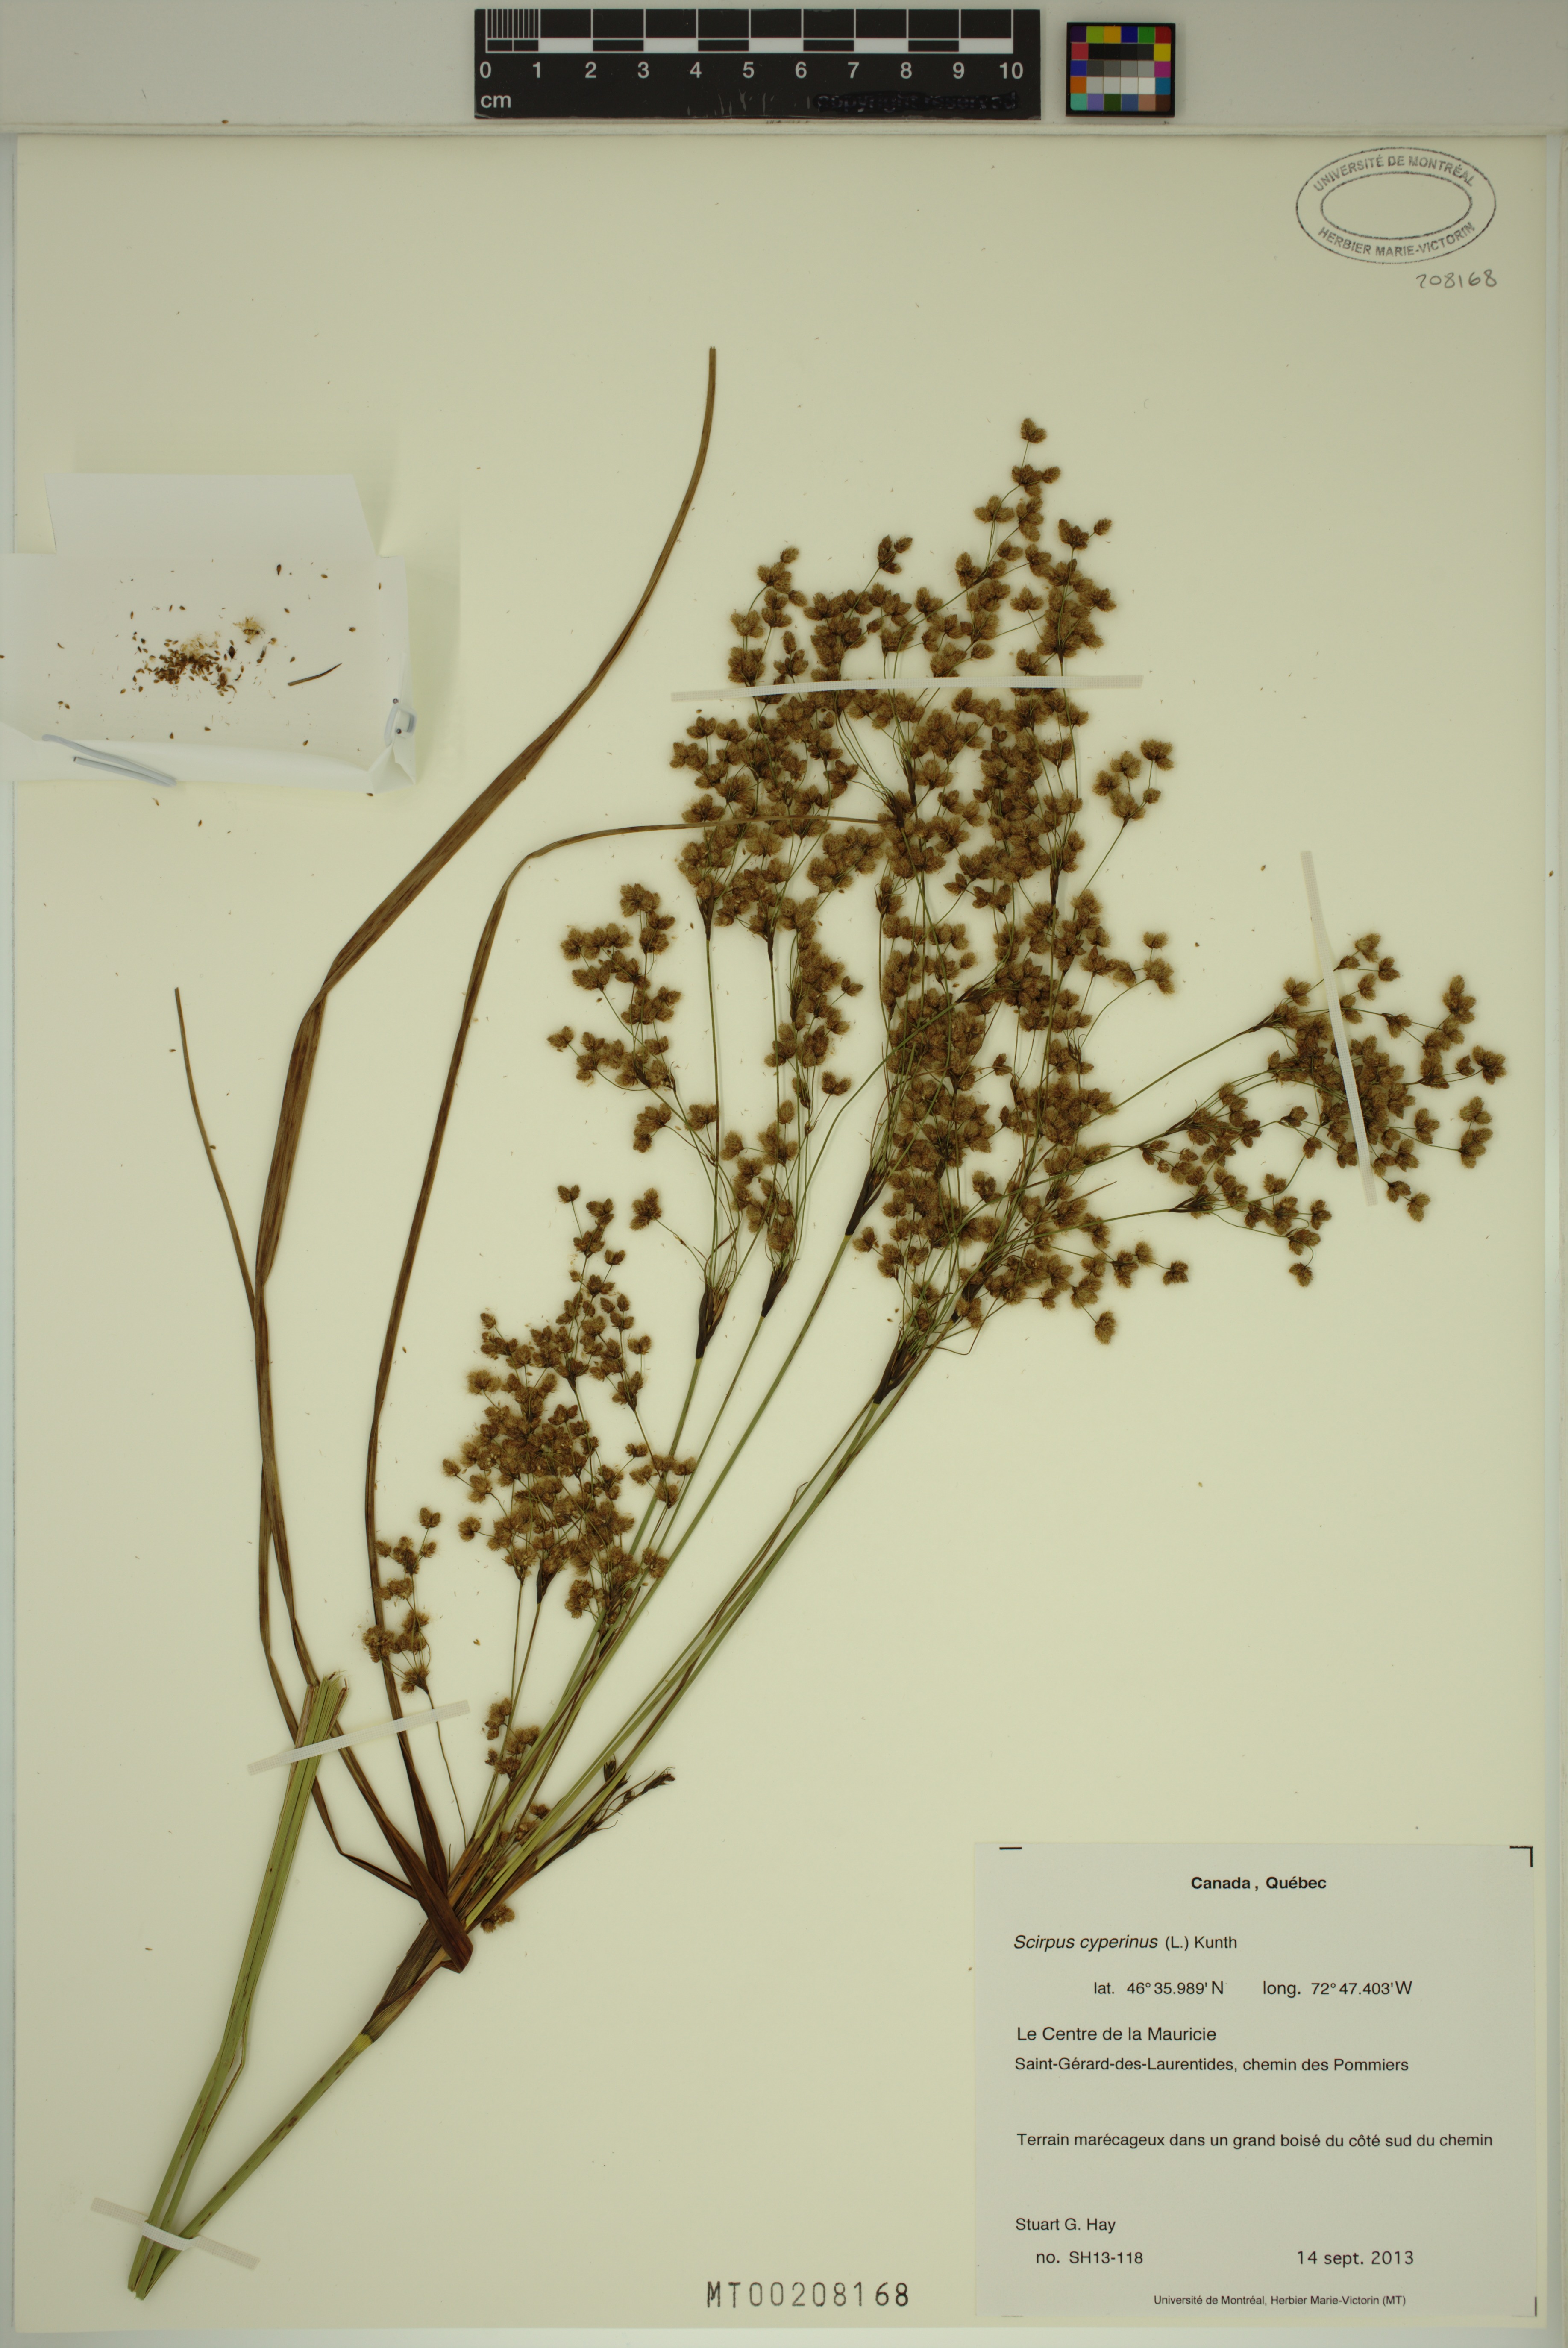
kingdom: Plantae
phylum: Tracheophyta
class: Liliopsida
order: Poales
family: Cyperaceae
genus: Scirpus
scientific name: Scirpus cyperinus
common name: Black-sheathed bulrush
